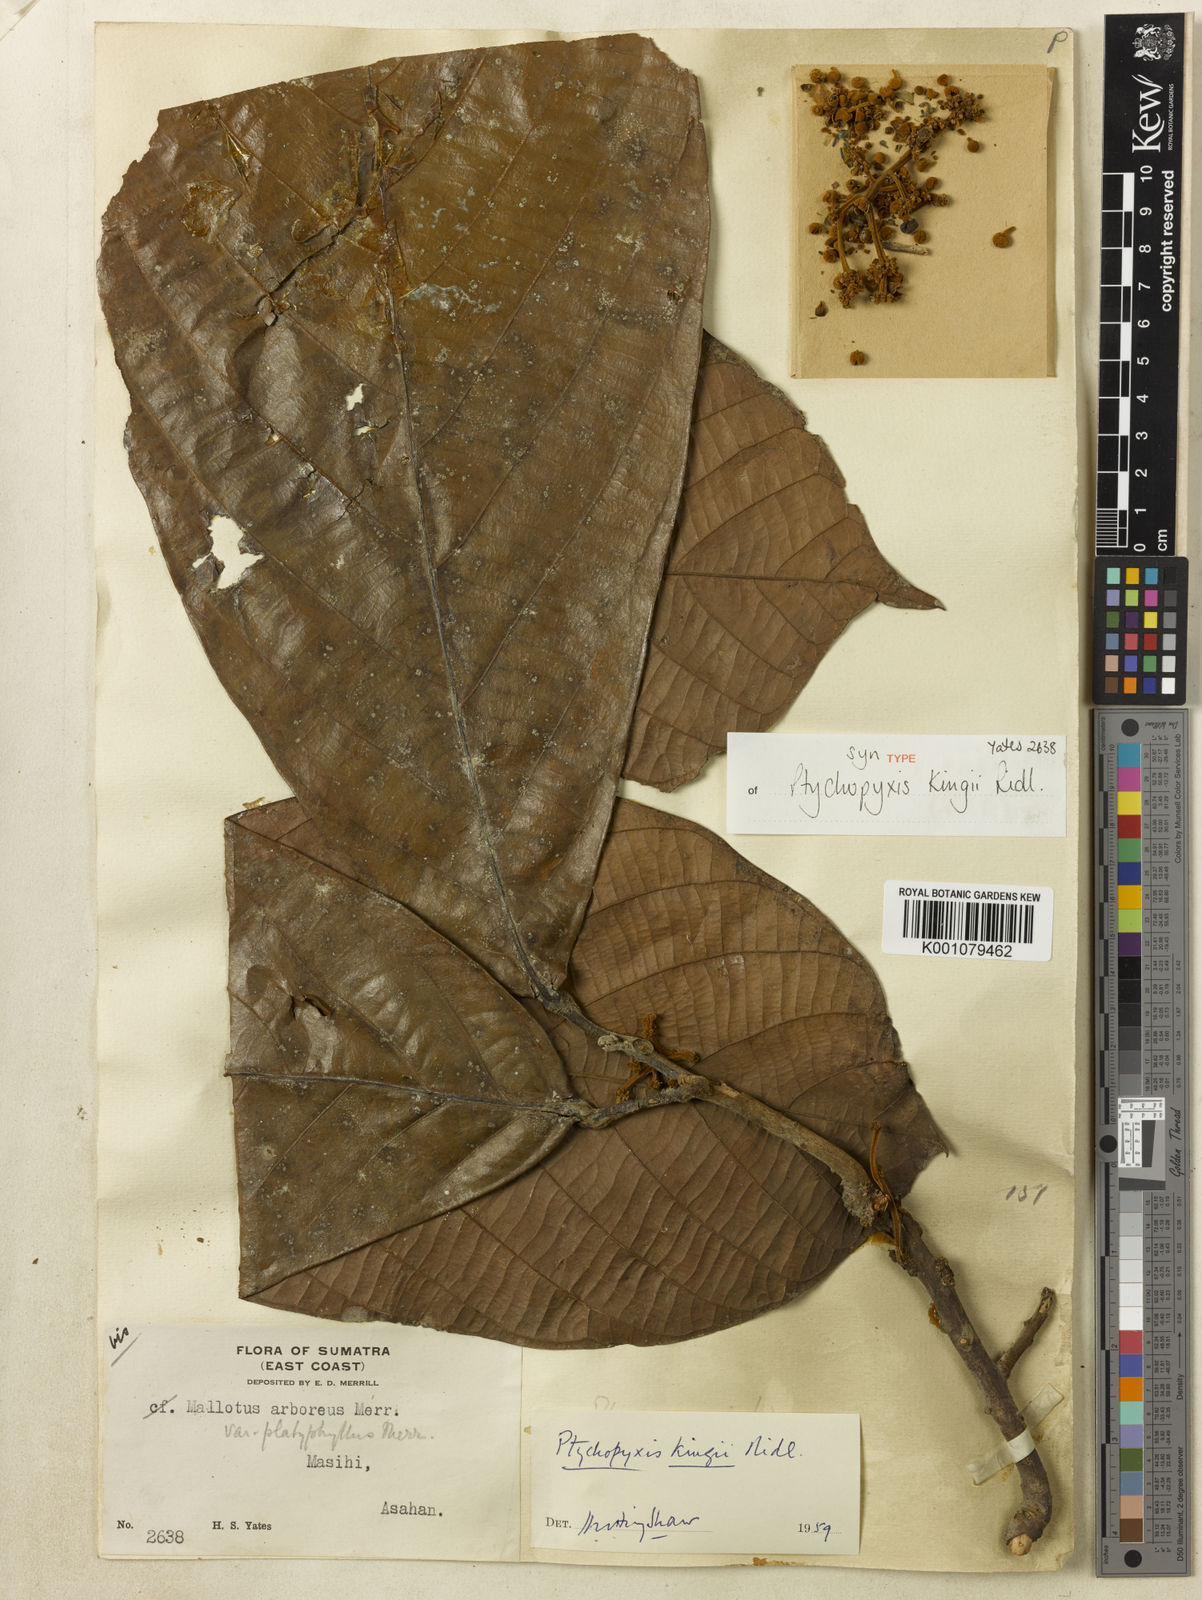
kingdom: Plantae
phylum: Tracheophyta
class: Magnoliopsida
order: Malpighiales
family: Euphorbiaceae
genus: Ptychopyxis
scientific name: Ptychopyxis kingii
